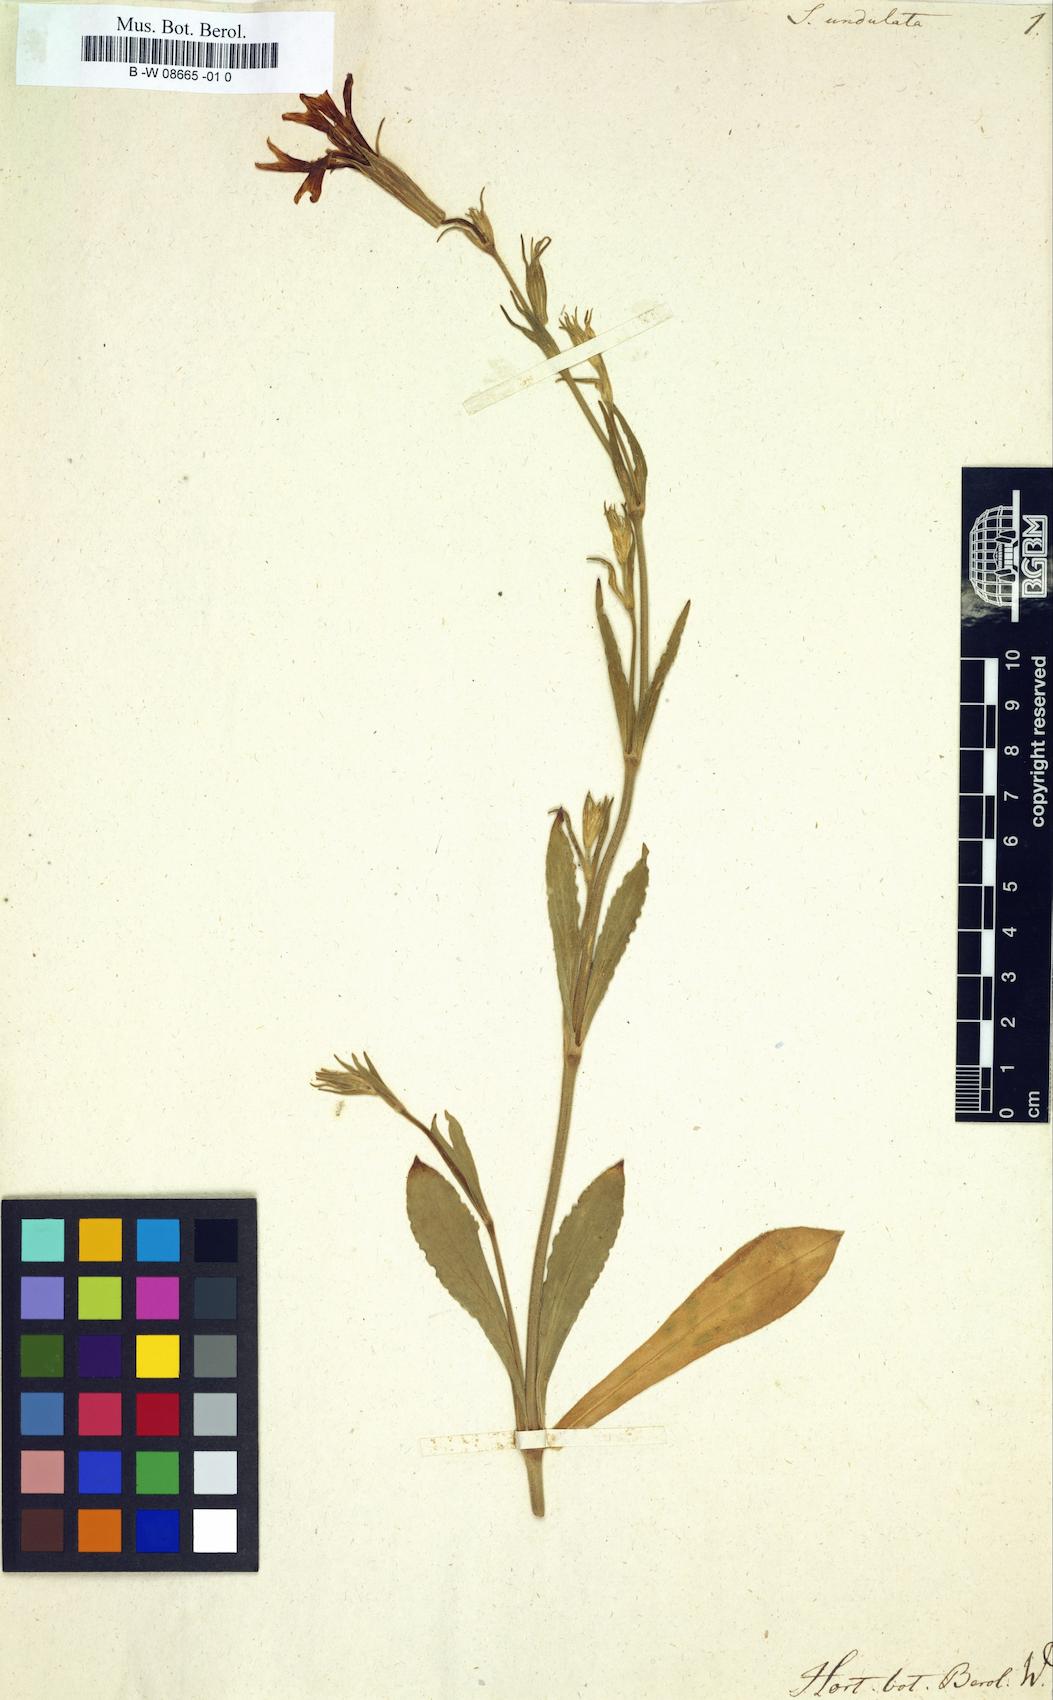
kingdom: Plantae
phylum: Tracheophyta
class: Magnoliopsida
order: Caryophyllales
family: Caryophyllaceae
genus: Silene
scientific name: Silene undulata
